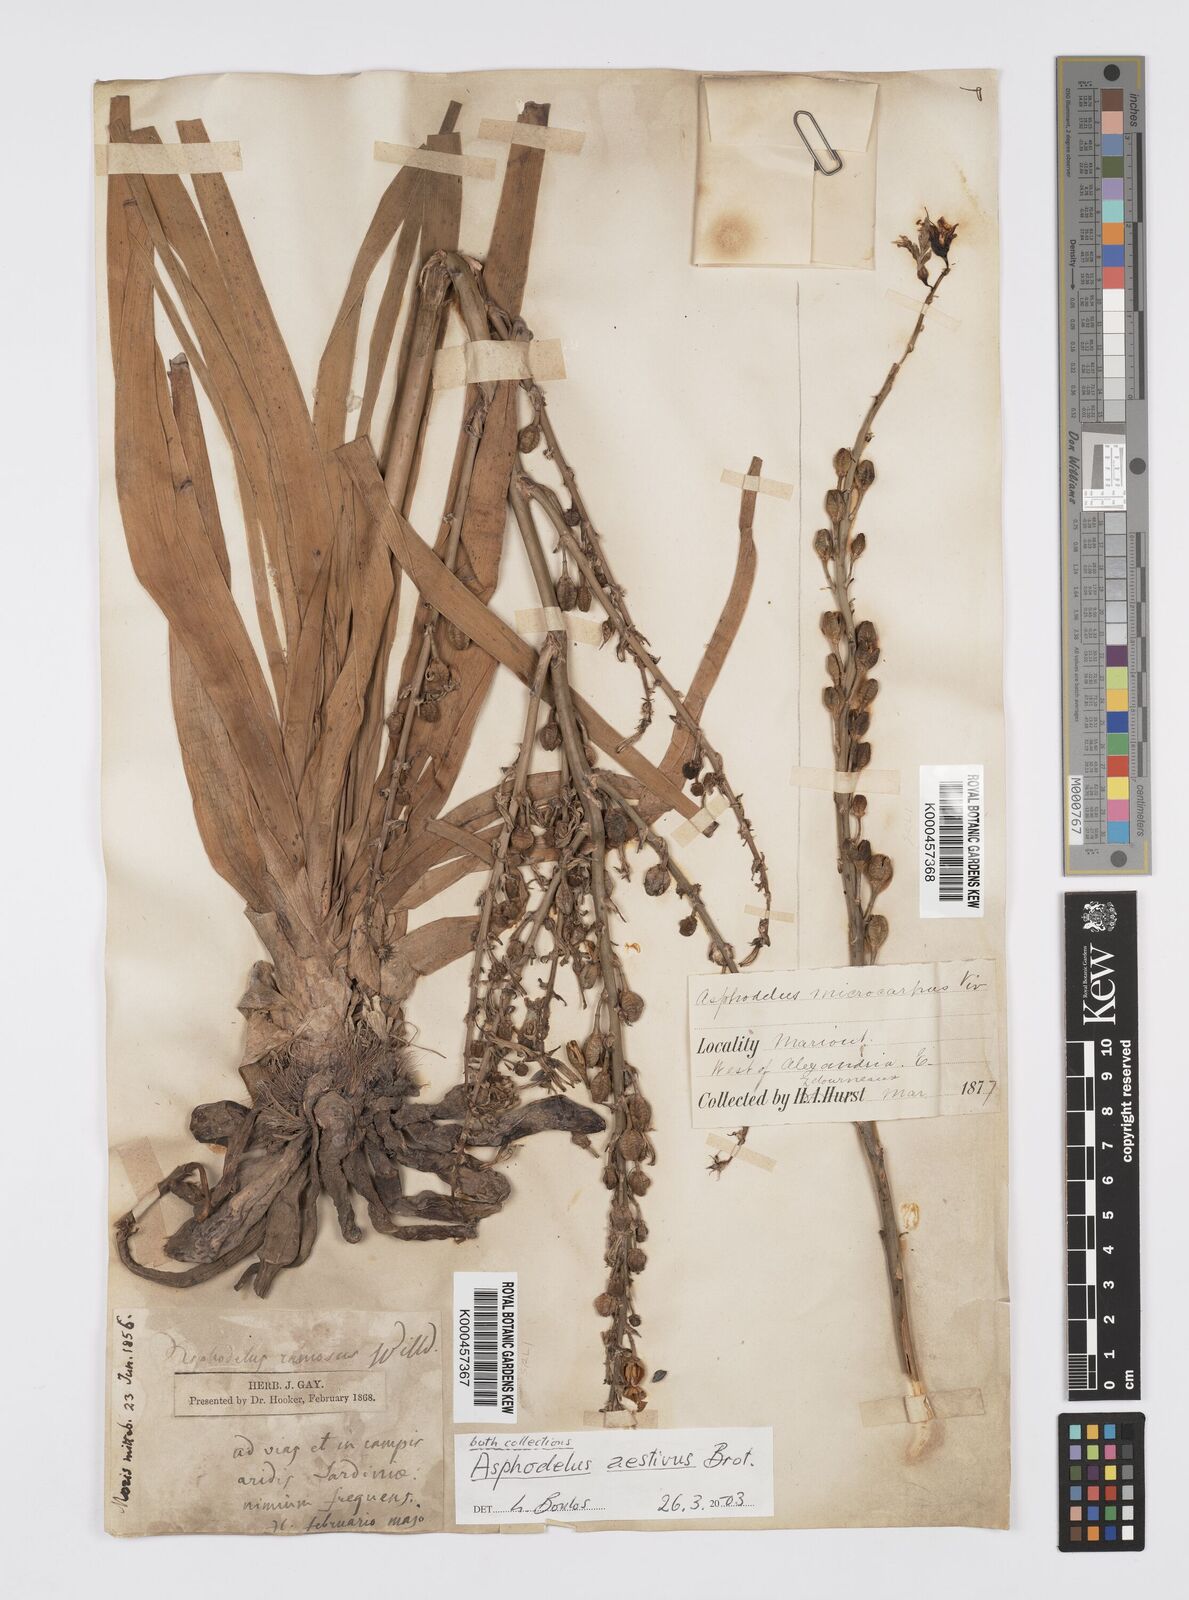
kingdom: Plantae
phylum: Tracheophyta
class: Liliopsida
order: Asparagales
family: Asphodelaceae
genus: Asphodelus
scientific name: Asphodelus aestivus
